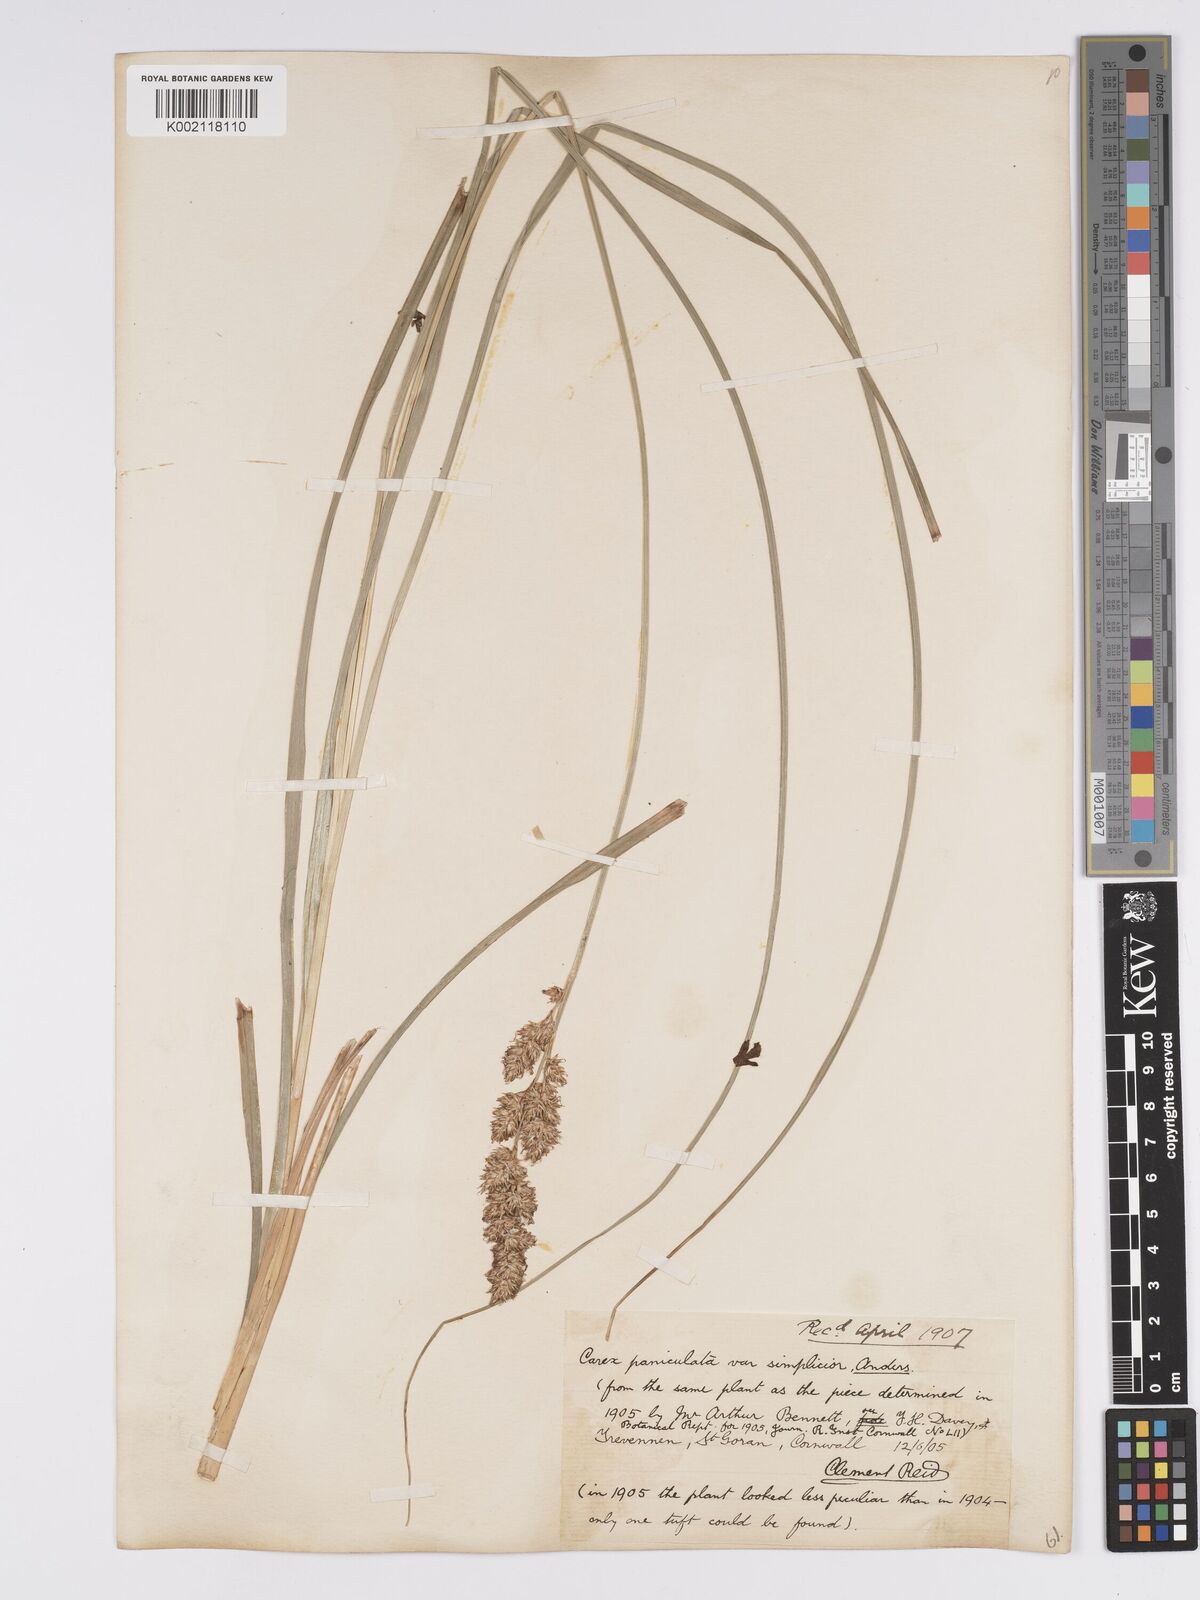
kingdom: Plantae
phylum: Tracheophyta
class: Liliopsida
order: Poales
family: Cyperaceae
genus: Carex
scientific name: Carex paniculata
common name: Greater tussock-sedge
